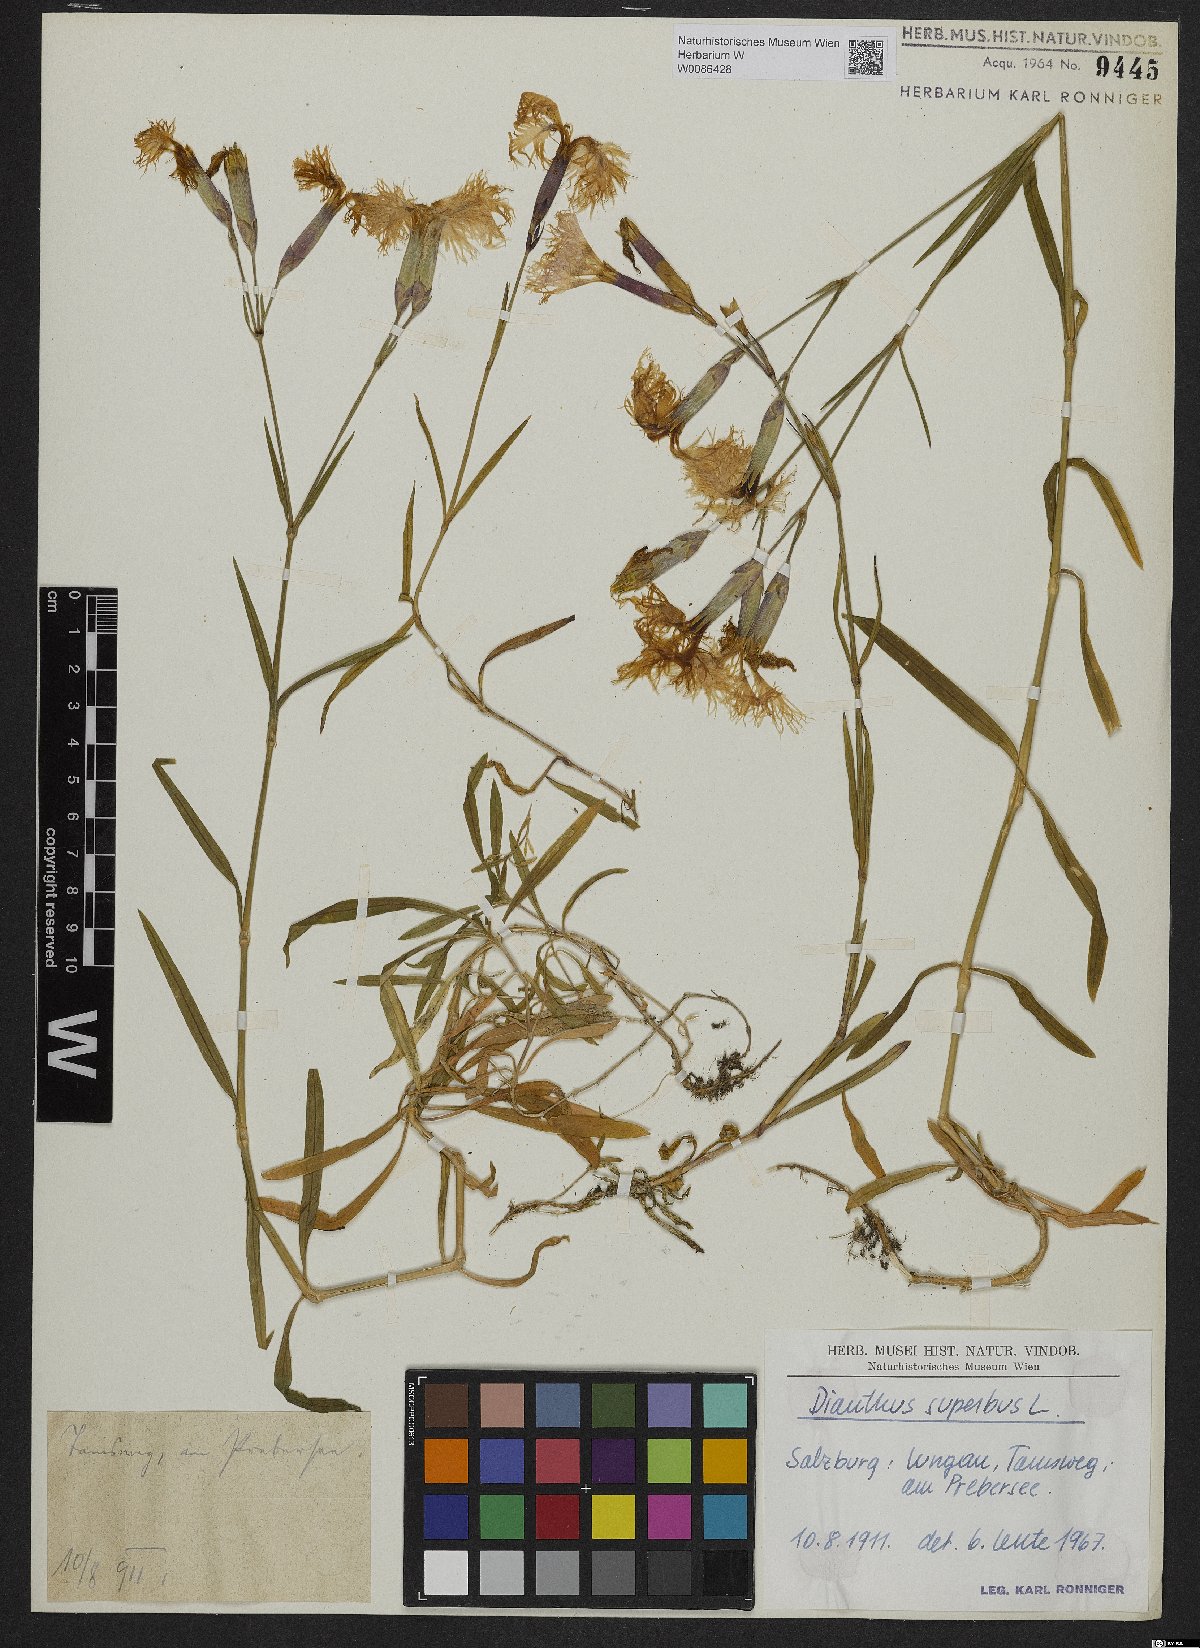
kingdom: Plantae
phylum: Tracheophyta
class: Magnoliopsida
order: Caryophyllales
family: Caryophyllaceae
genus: Dianthus
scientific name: Dianthus superbus
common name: Fringed pink
